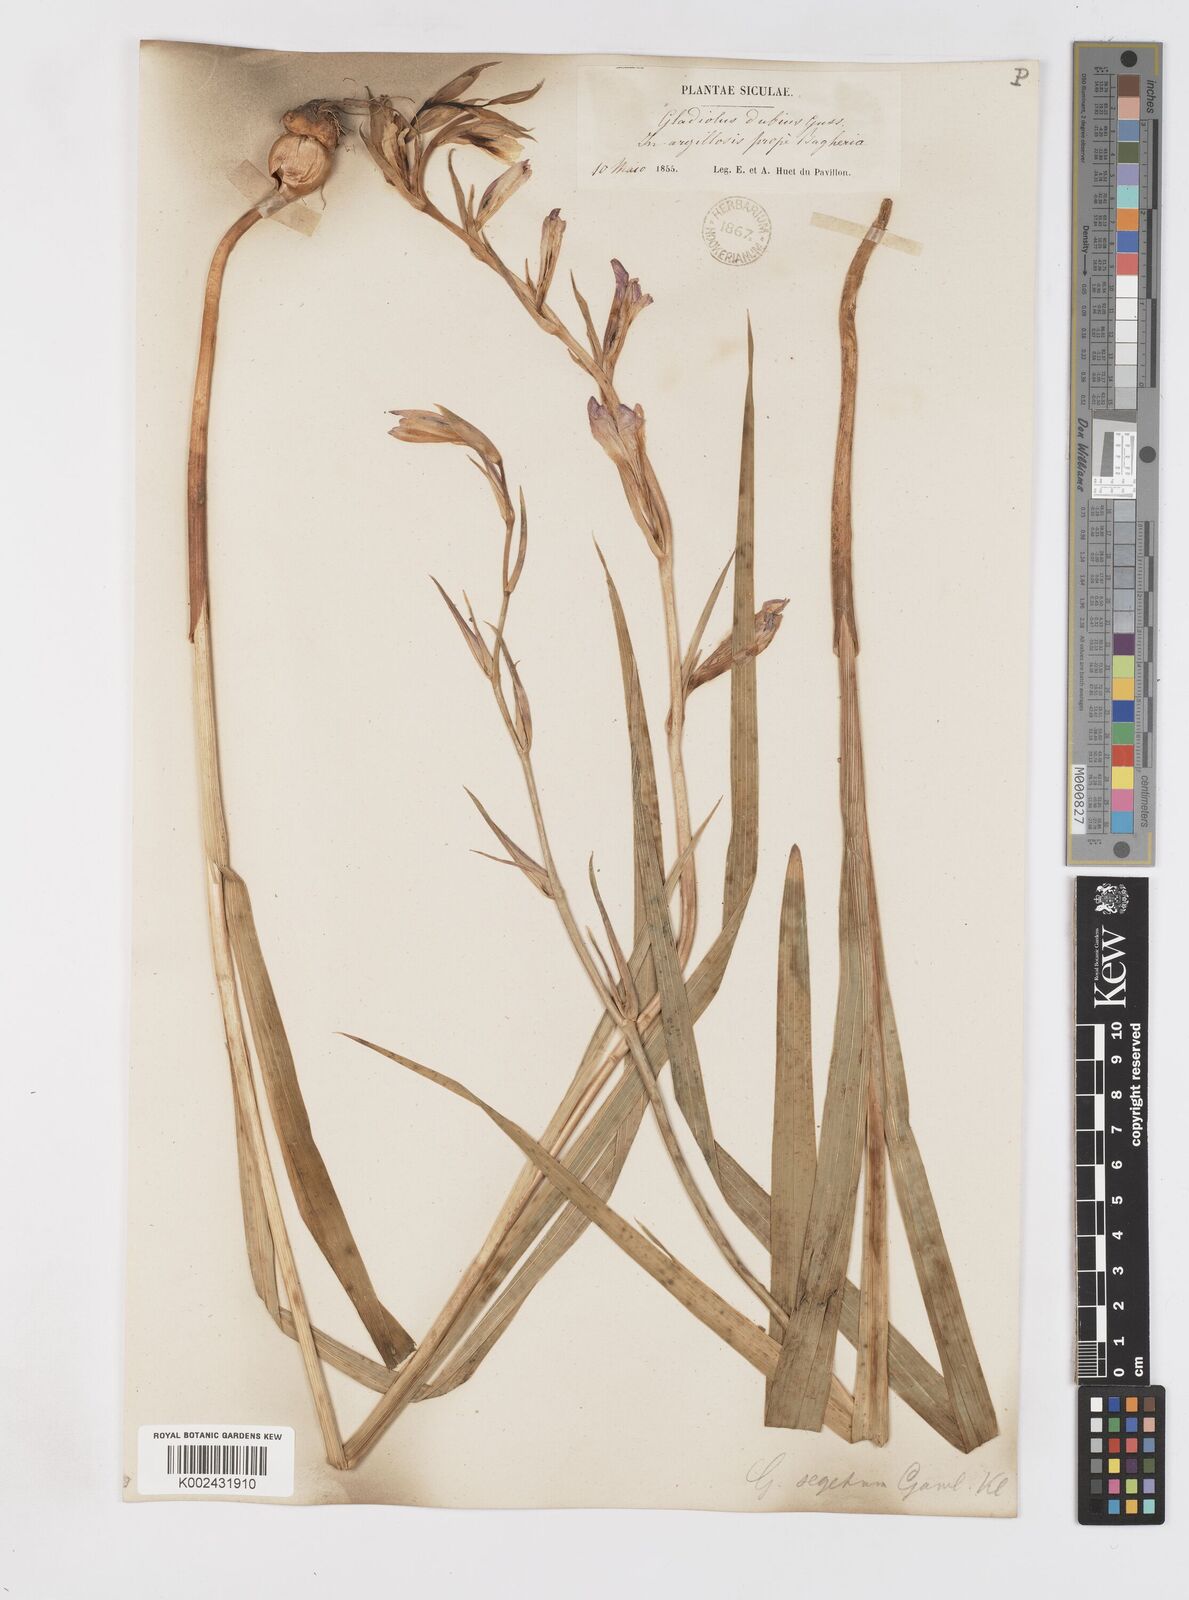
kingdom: Plantae
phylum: Tracheophyta
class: Liliopsida
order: Asparagales
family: Iridaceae
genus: Gladiolus
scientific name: Gladiolus italicus
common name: Field gladiolus
